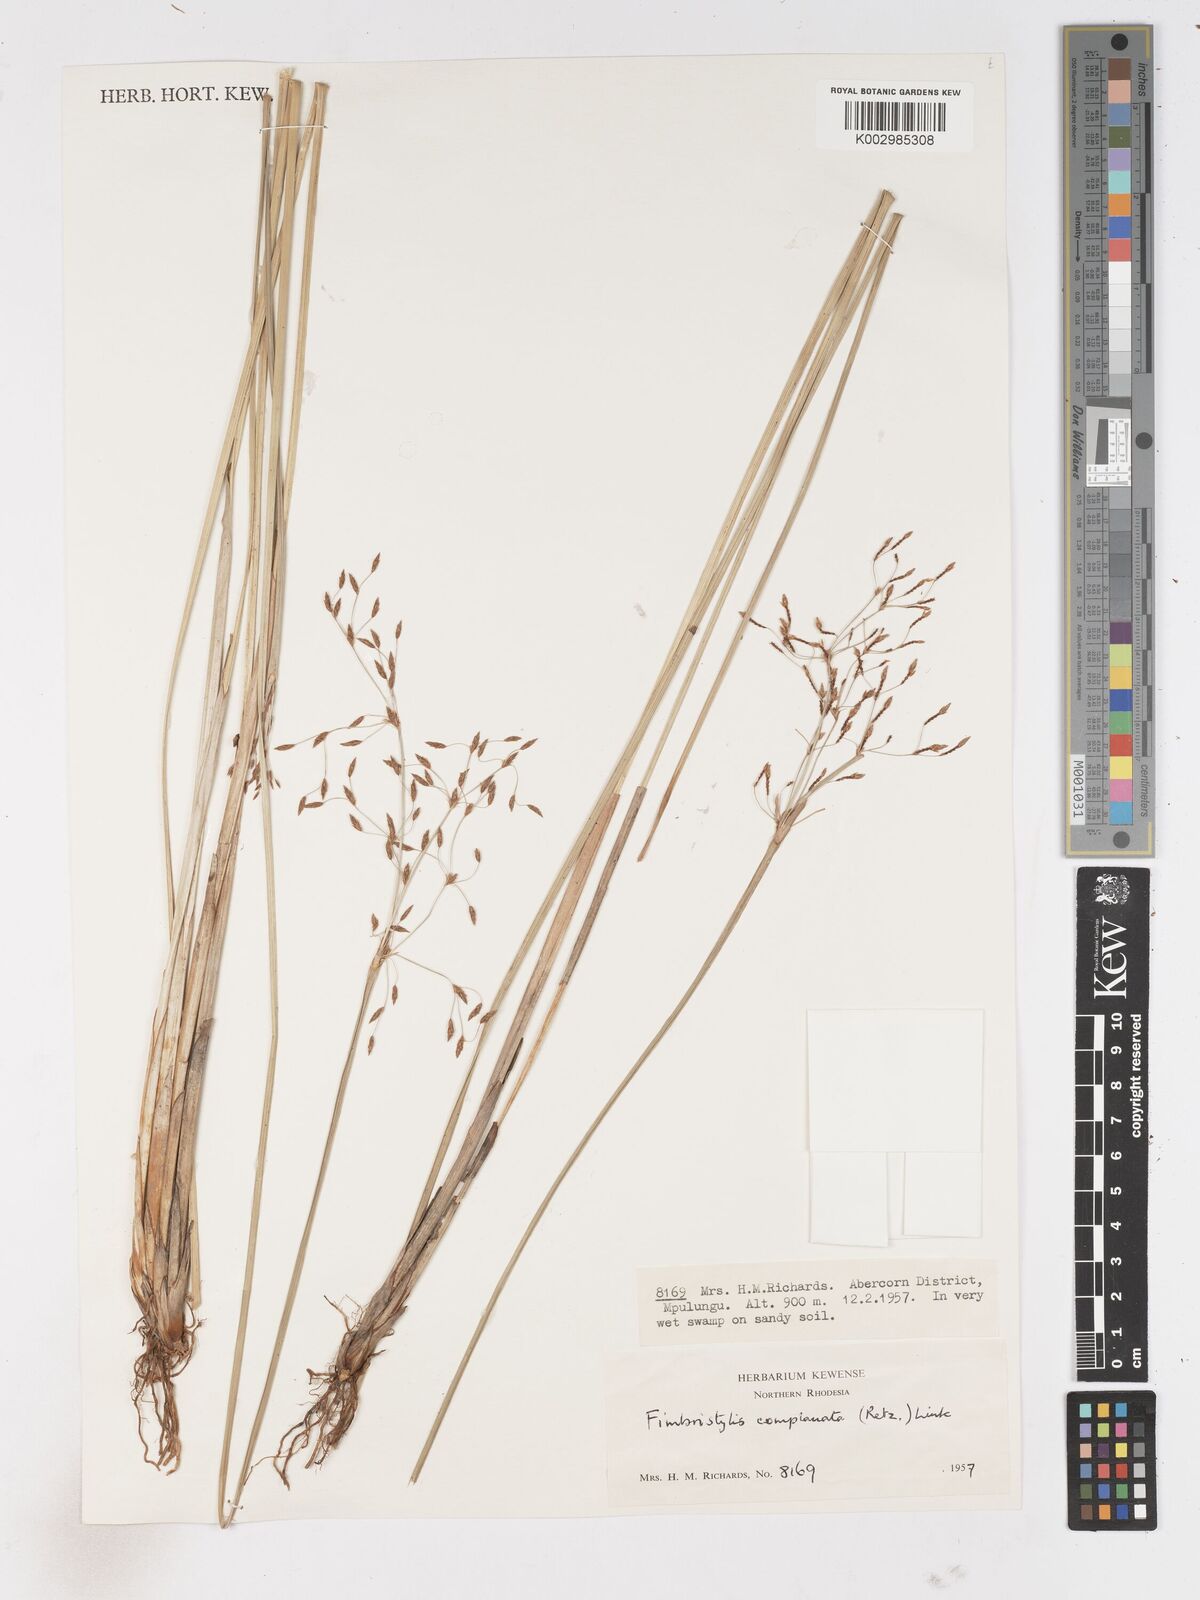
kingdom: Plantae
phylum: Tracheophyta
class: Liliopsida
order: Poales
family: Cyperaceae
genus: Fimbristylis
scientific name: Fimbristylis complanata
